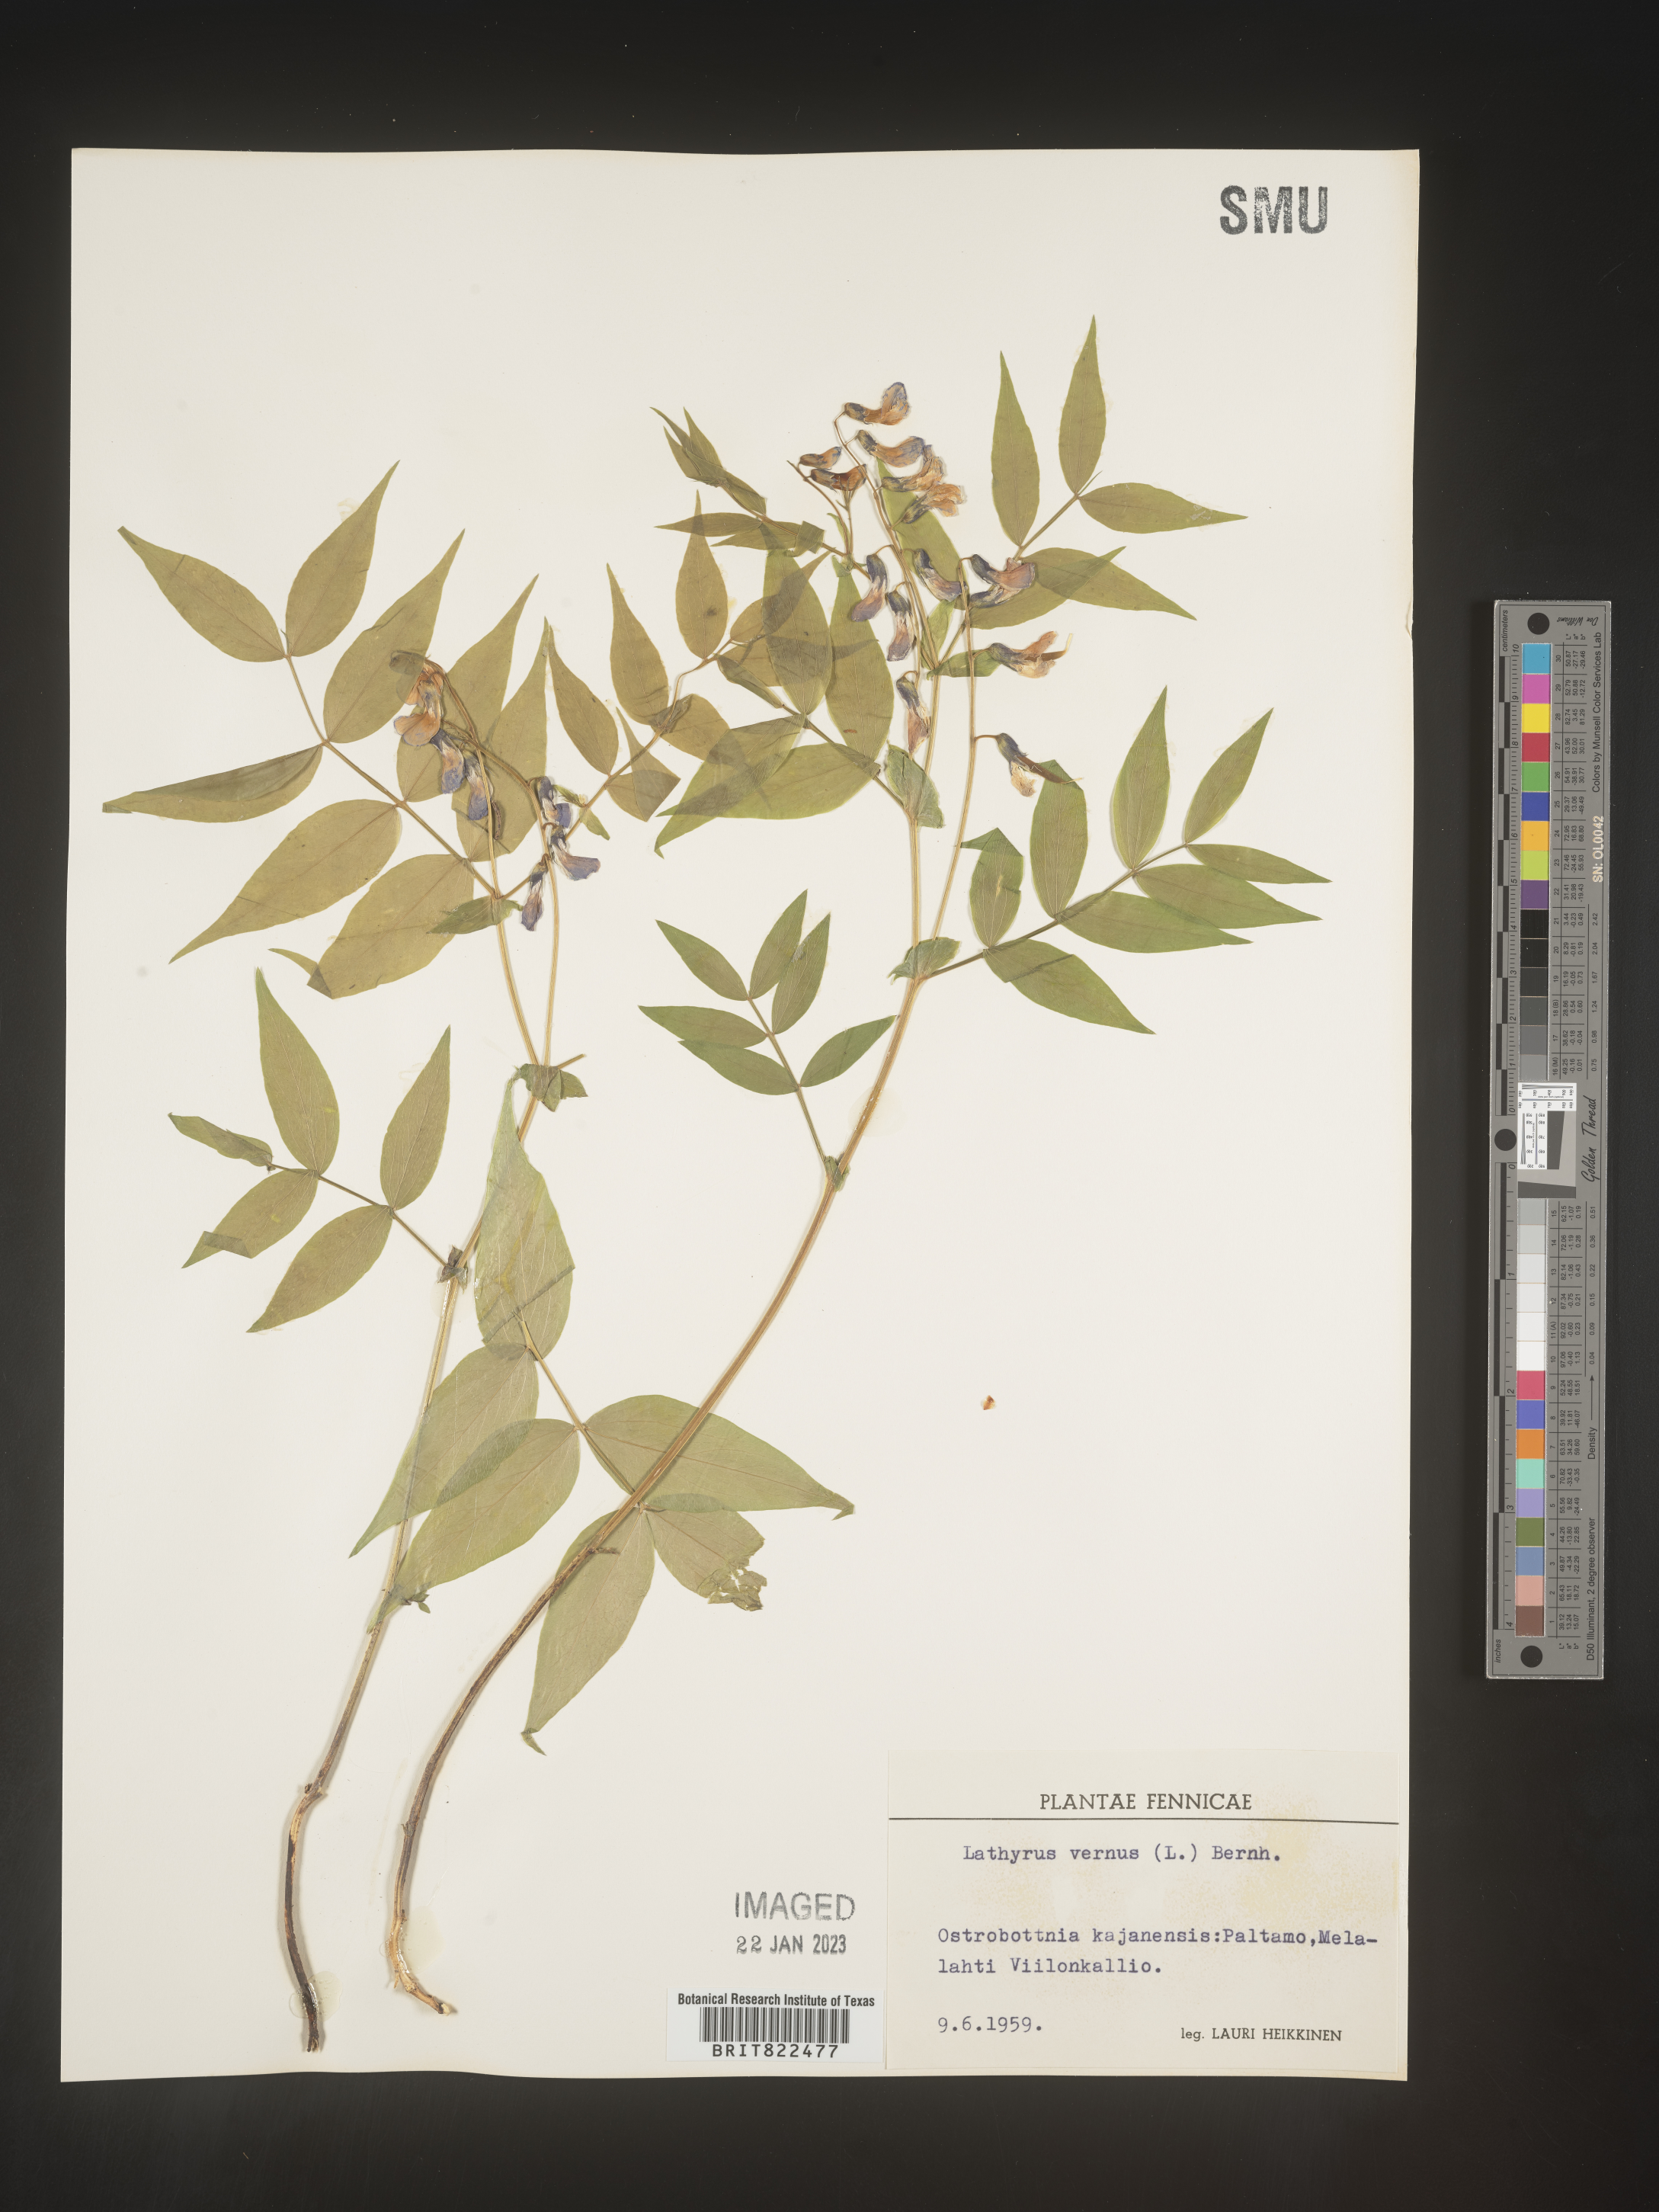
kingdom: Plantae
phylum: Tracheophyta
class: Magnoliopsida
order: Fabales
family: Fabaceae
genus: Lathyrus
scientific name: Lathyrus
